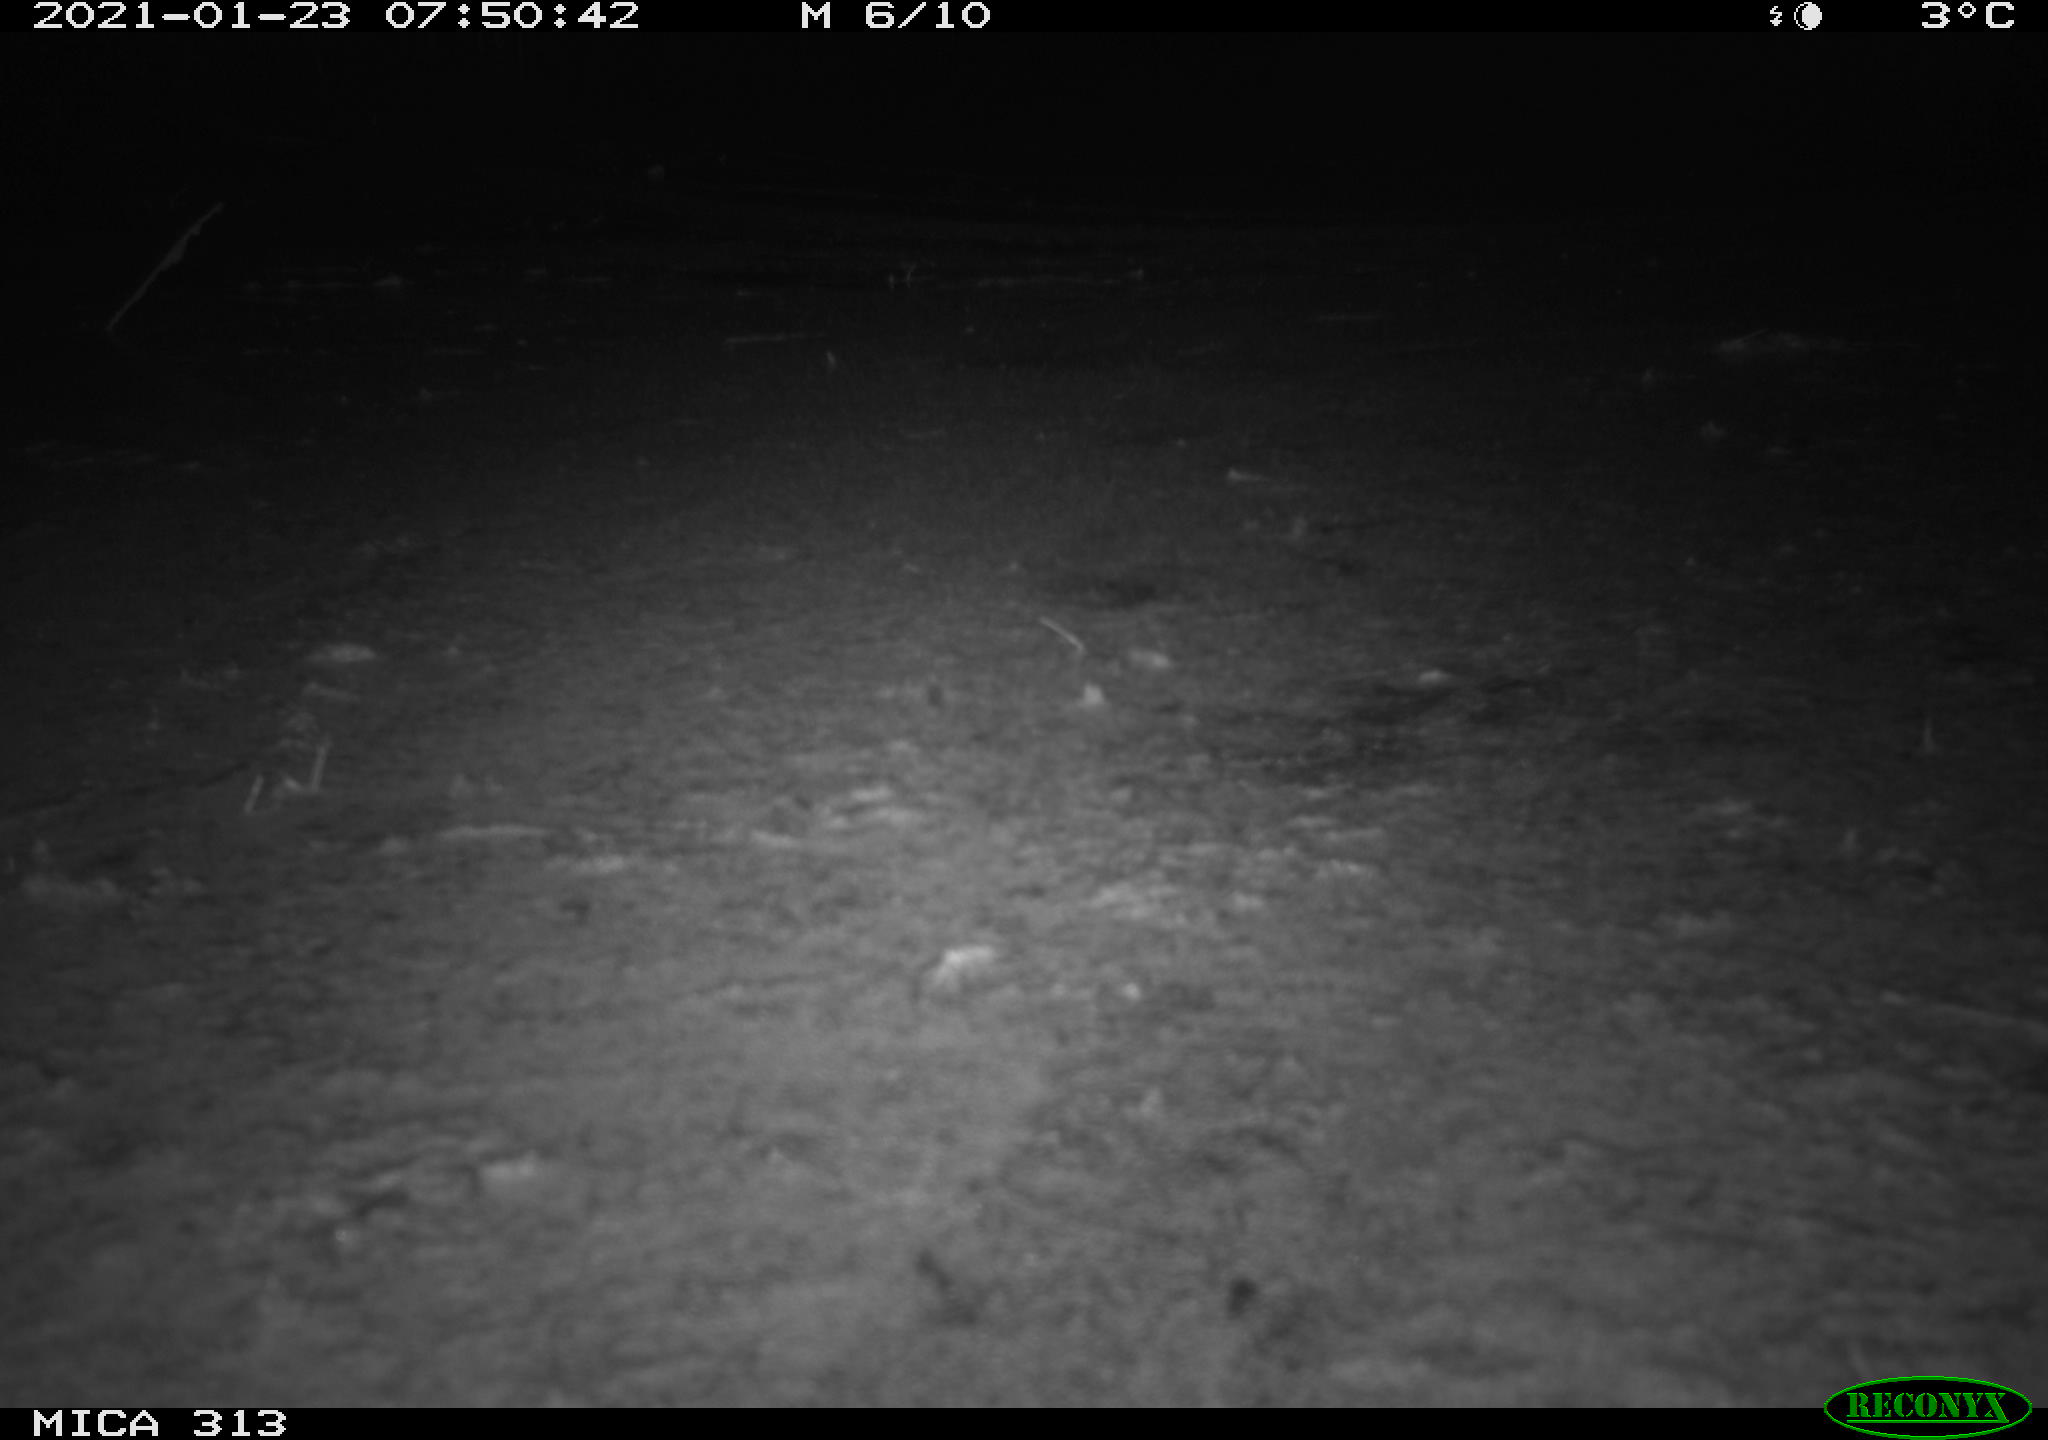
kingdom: Animalia
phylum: Chordata
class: Aves
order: Gruiformes
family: Rallidae
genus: Gallinula
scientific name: Gallinula chloropus
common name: Common moorhen
